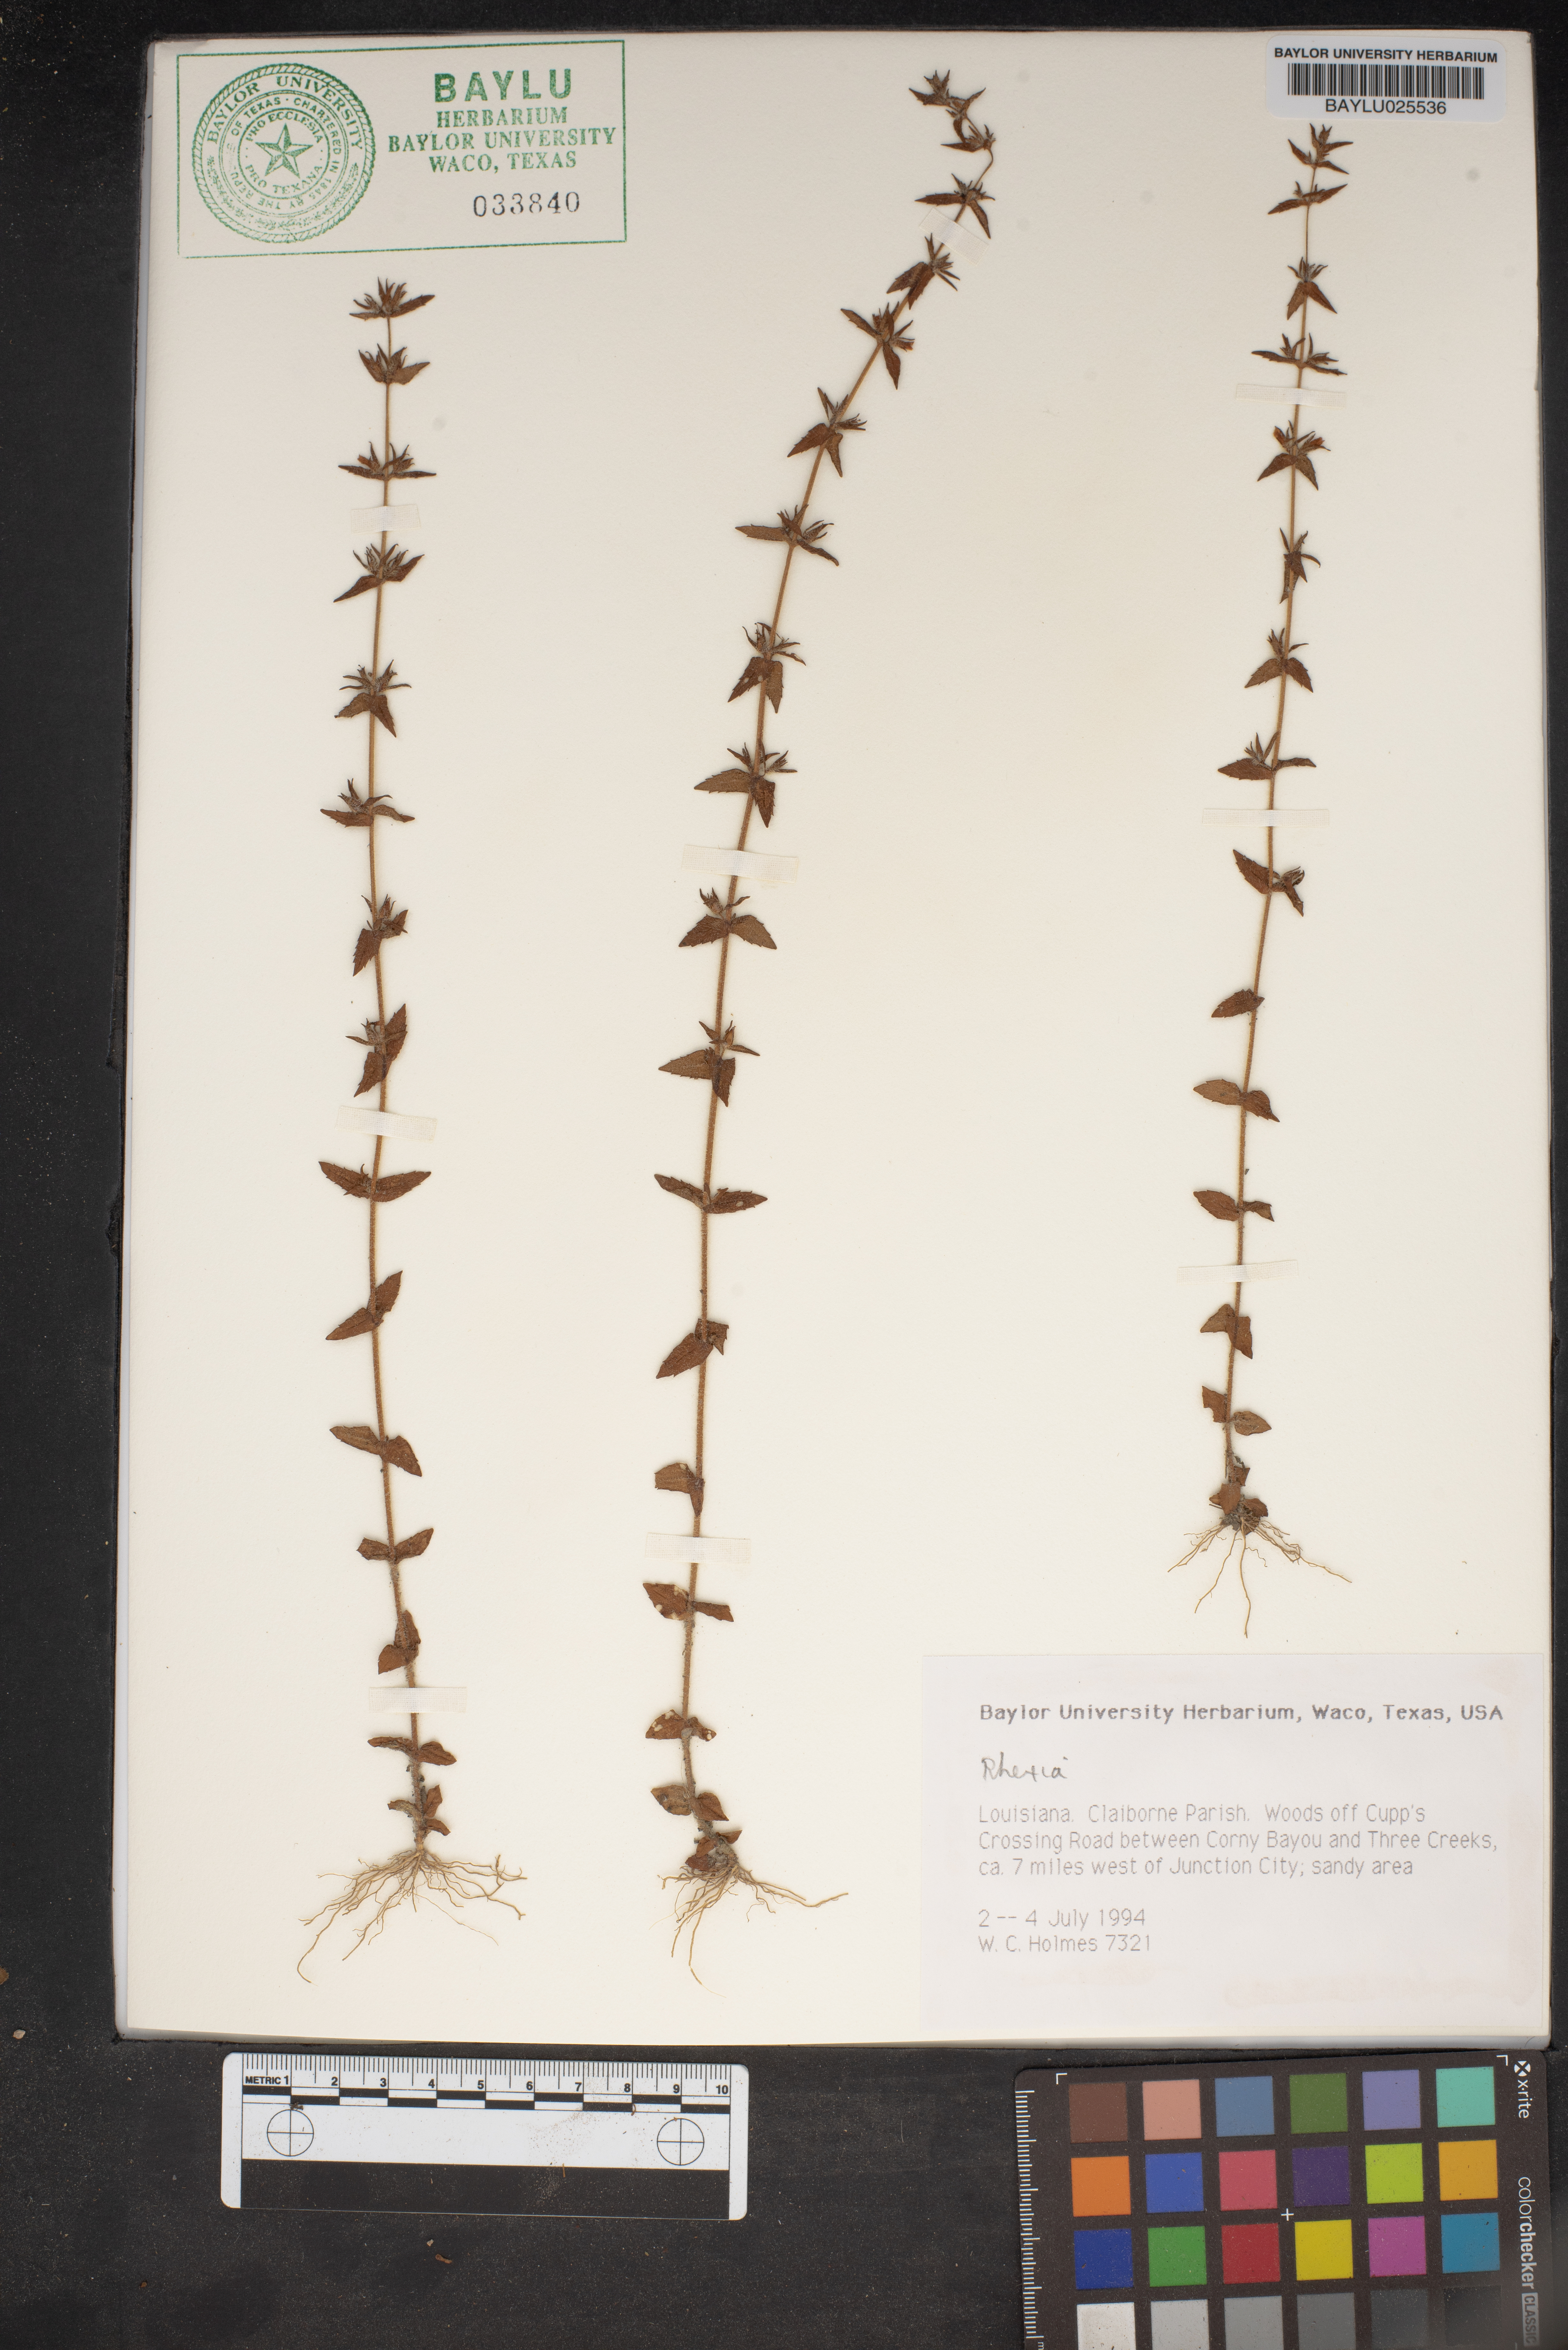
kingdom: Plantae
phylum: Tracheophyta
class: Magnoliopsida
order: Myrtales
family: Melastomataceae
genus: Rhexia
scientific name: Rhexia
